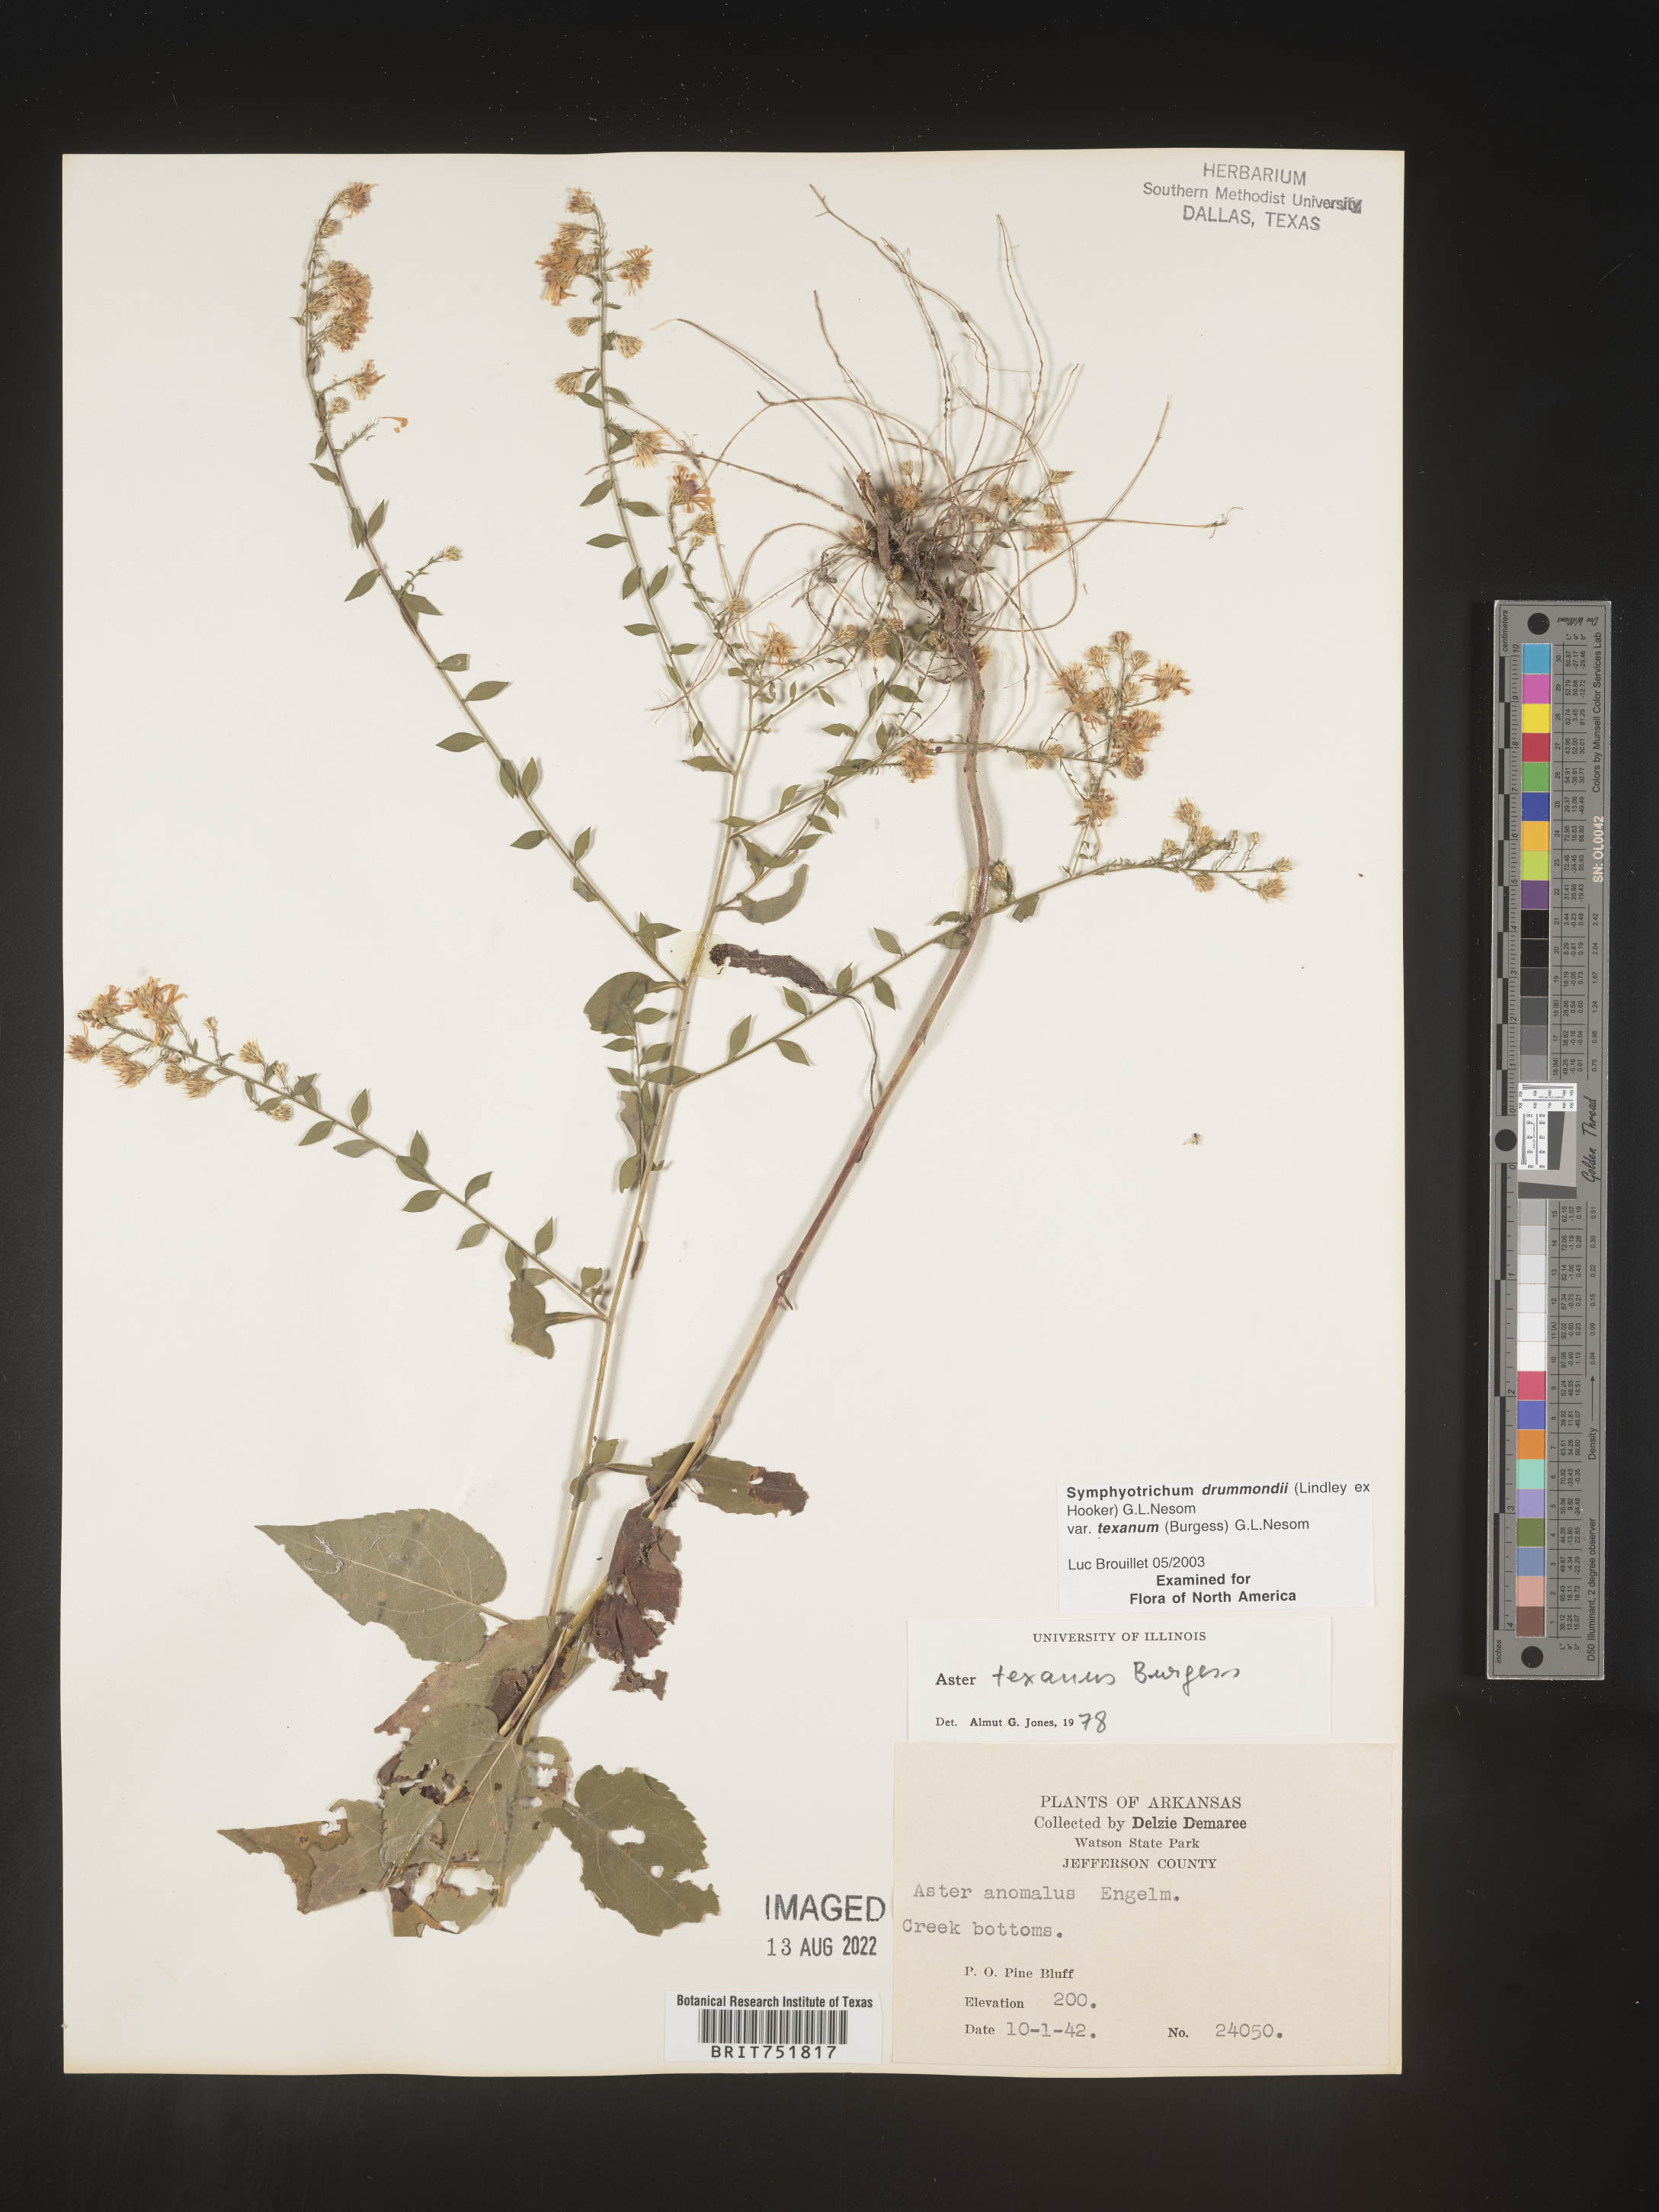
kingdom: Plantae
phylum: Tracheophyta
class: Magnoliopsida
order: Asterales
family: Asteraceae
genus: Symphyotrichum
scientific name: Symphyotrichum drummondii
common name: Drummond's aster
